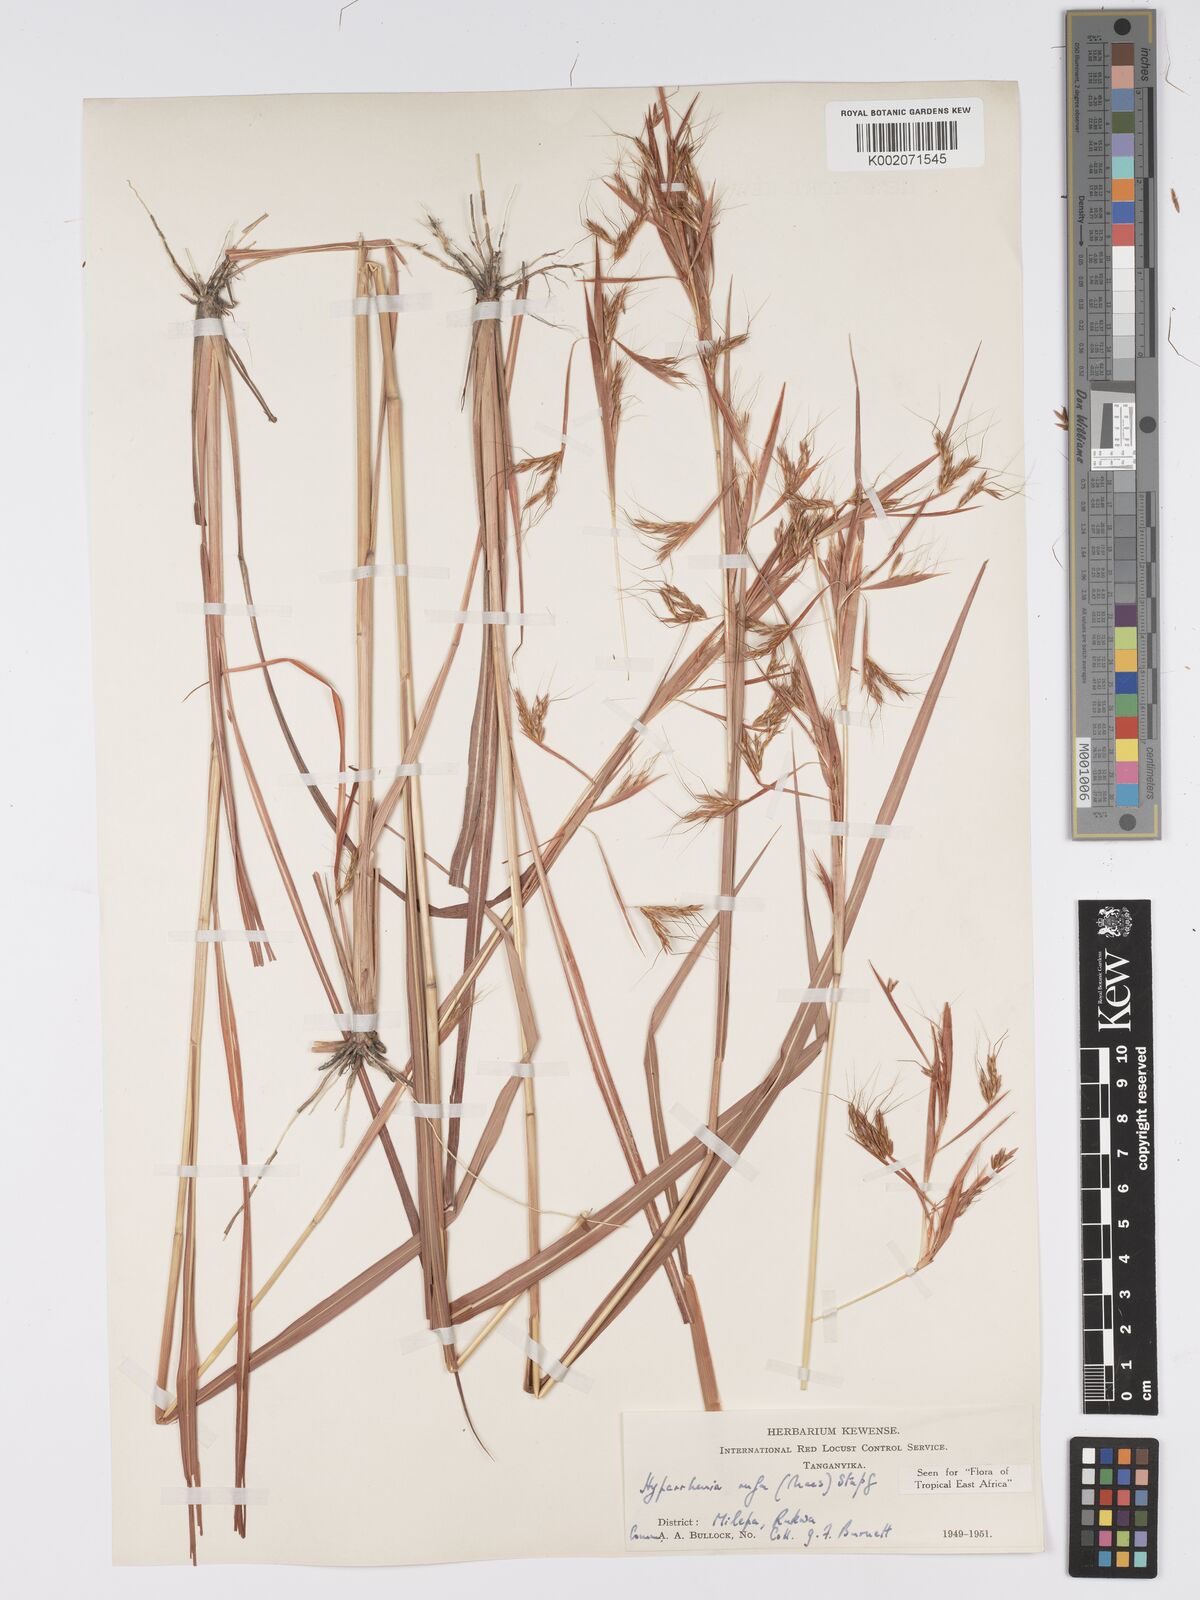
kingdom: Plantae
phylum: Tracheophyta
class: Liliopsida
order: Poales
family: Poaceae
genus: Hyparrhenia
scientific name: Hyparrhenia rufa
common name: Jaraguagrass
